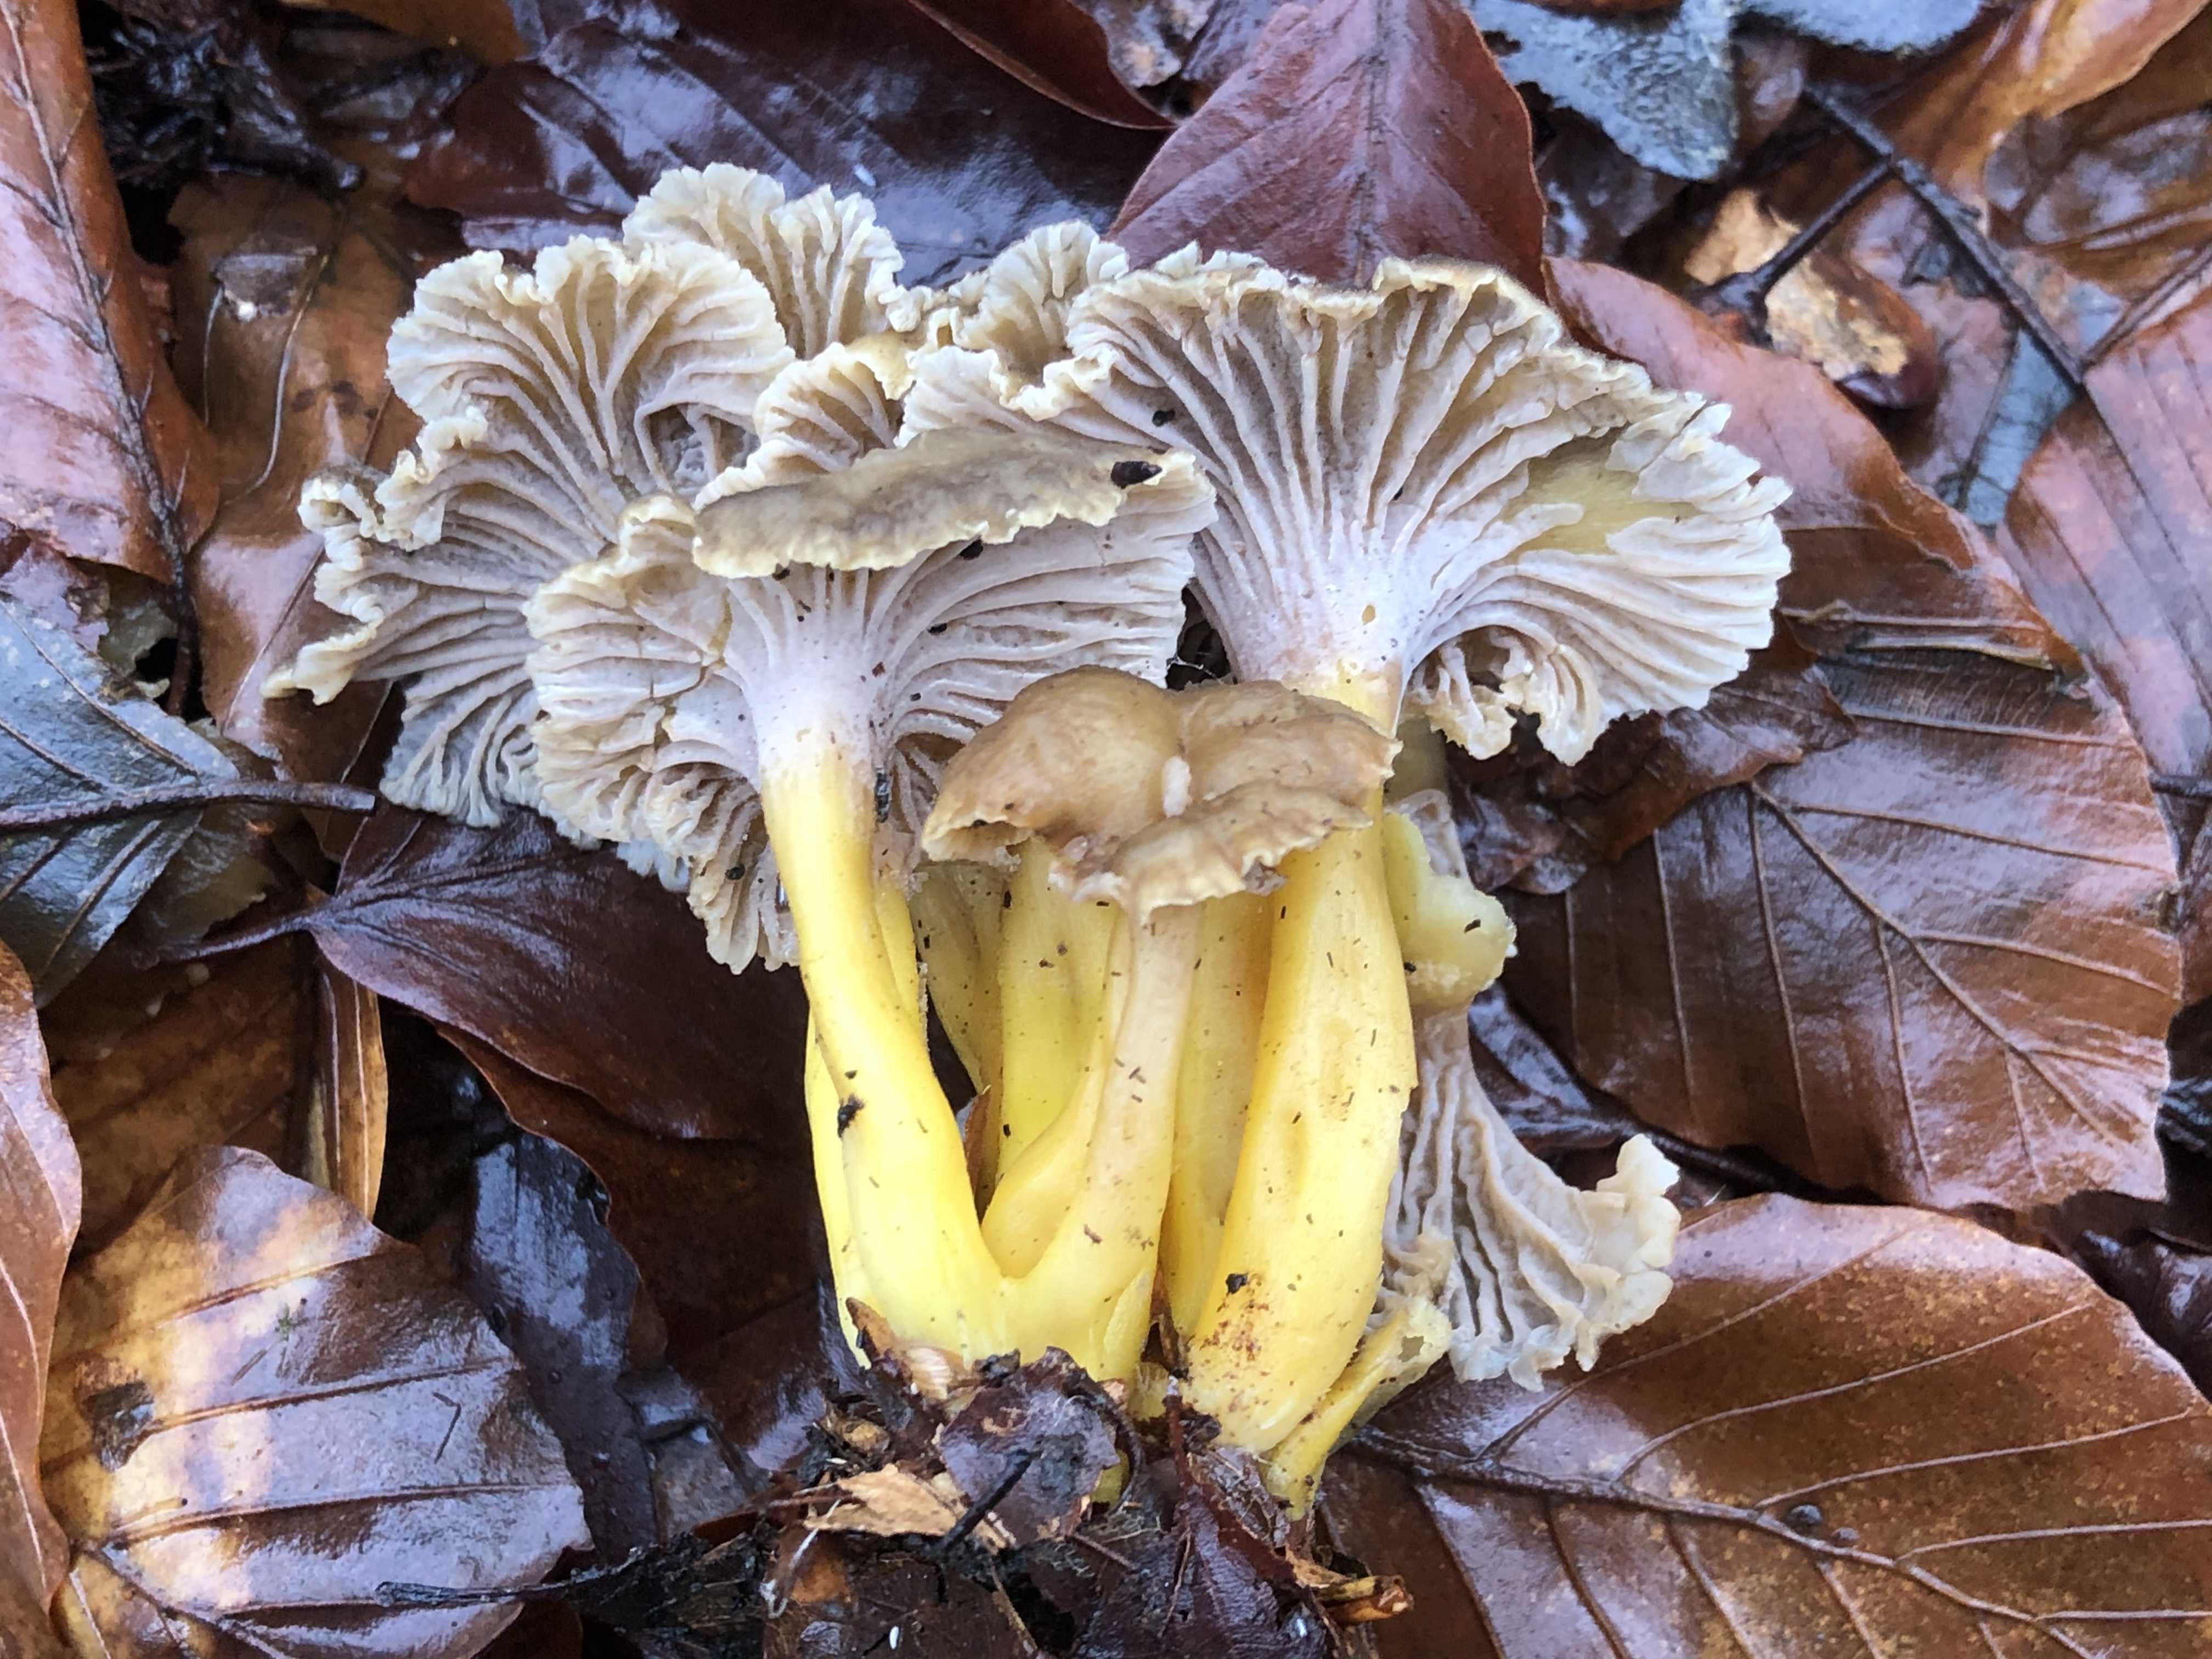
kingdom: Fungi
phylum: Basidiomycota
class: Agaricomycetes
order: Cantharellales
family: Hydnaceae
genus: Craterellus
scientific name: Craterellus tubaeformis
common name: tragt-kantarel
